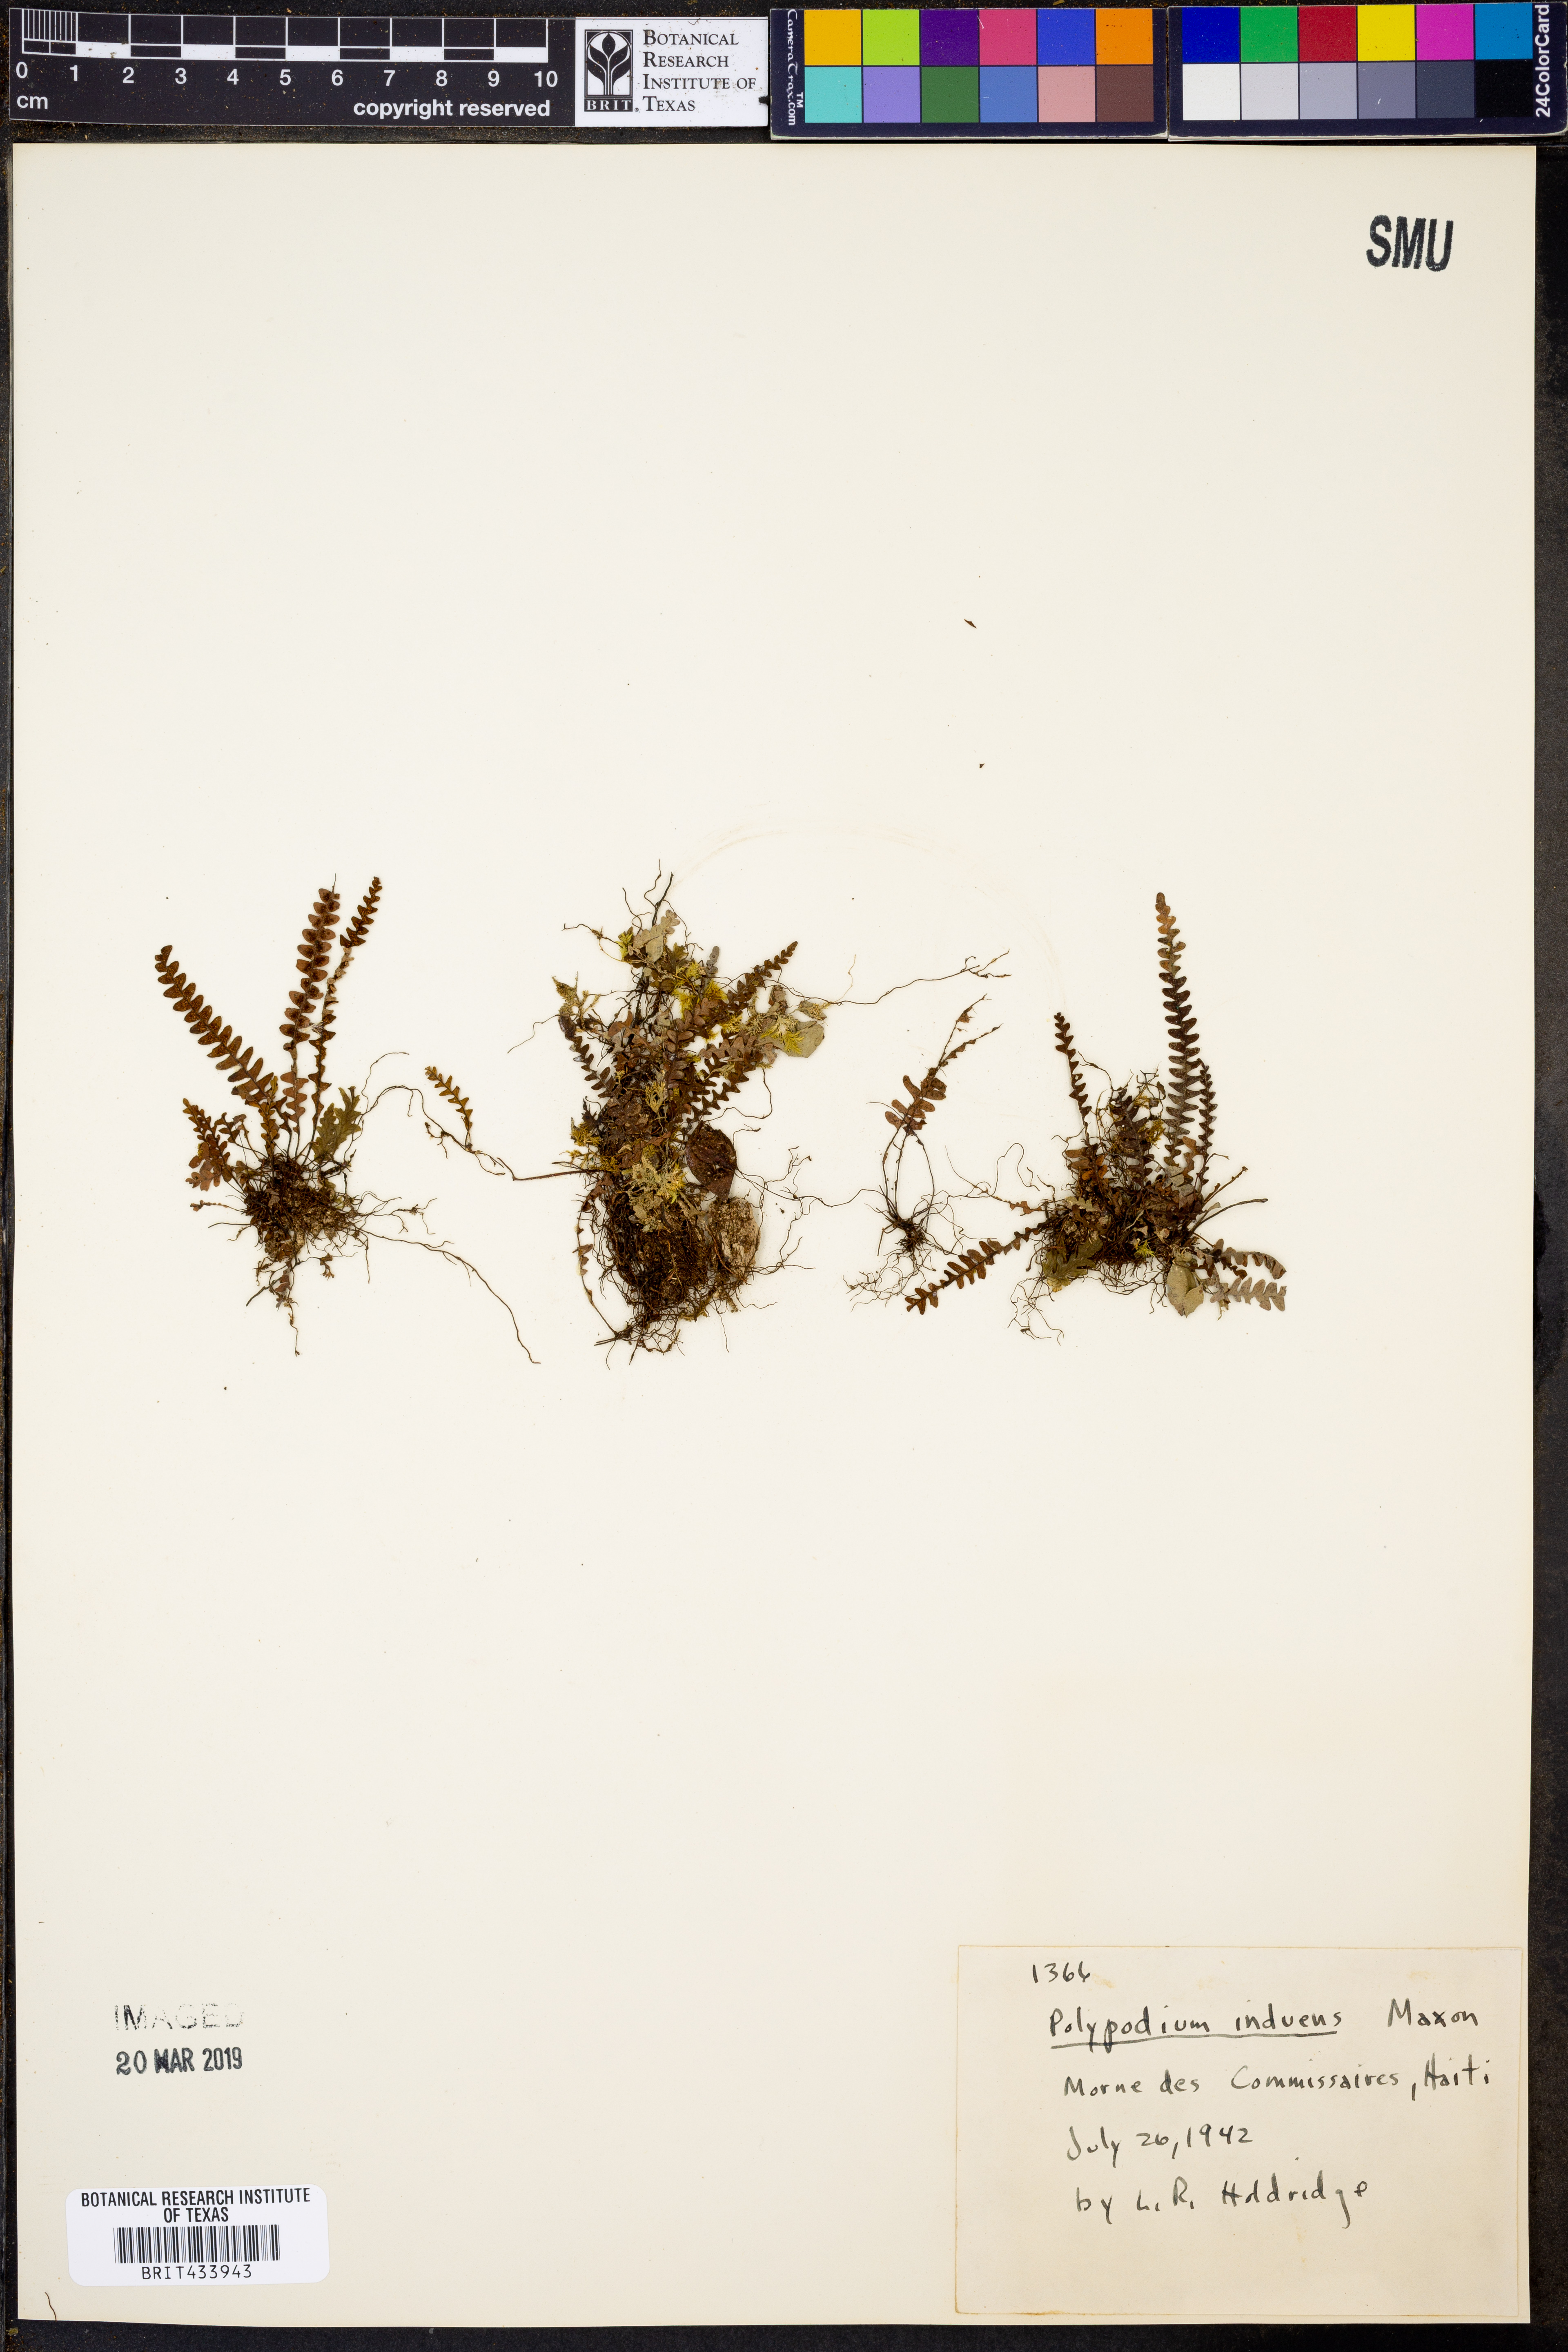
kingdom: Plantae
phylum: Tracheophyta
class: Polypodiopsida
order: Polypodiales
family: Polypodiaceae
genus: Ascogrammitis
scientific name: Ascogrammitis anfractuosa
